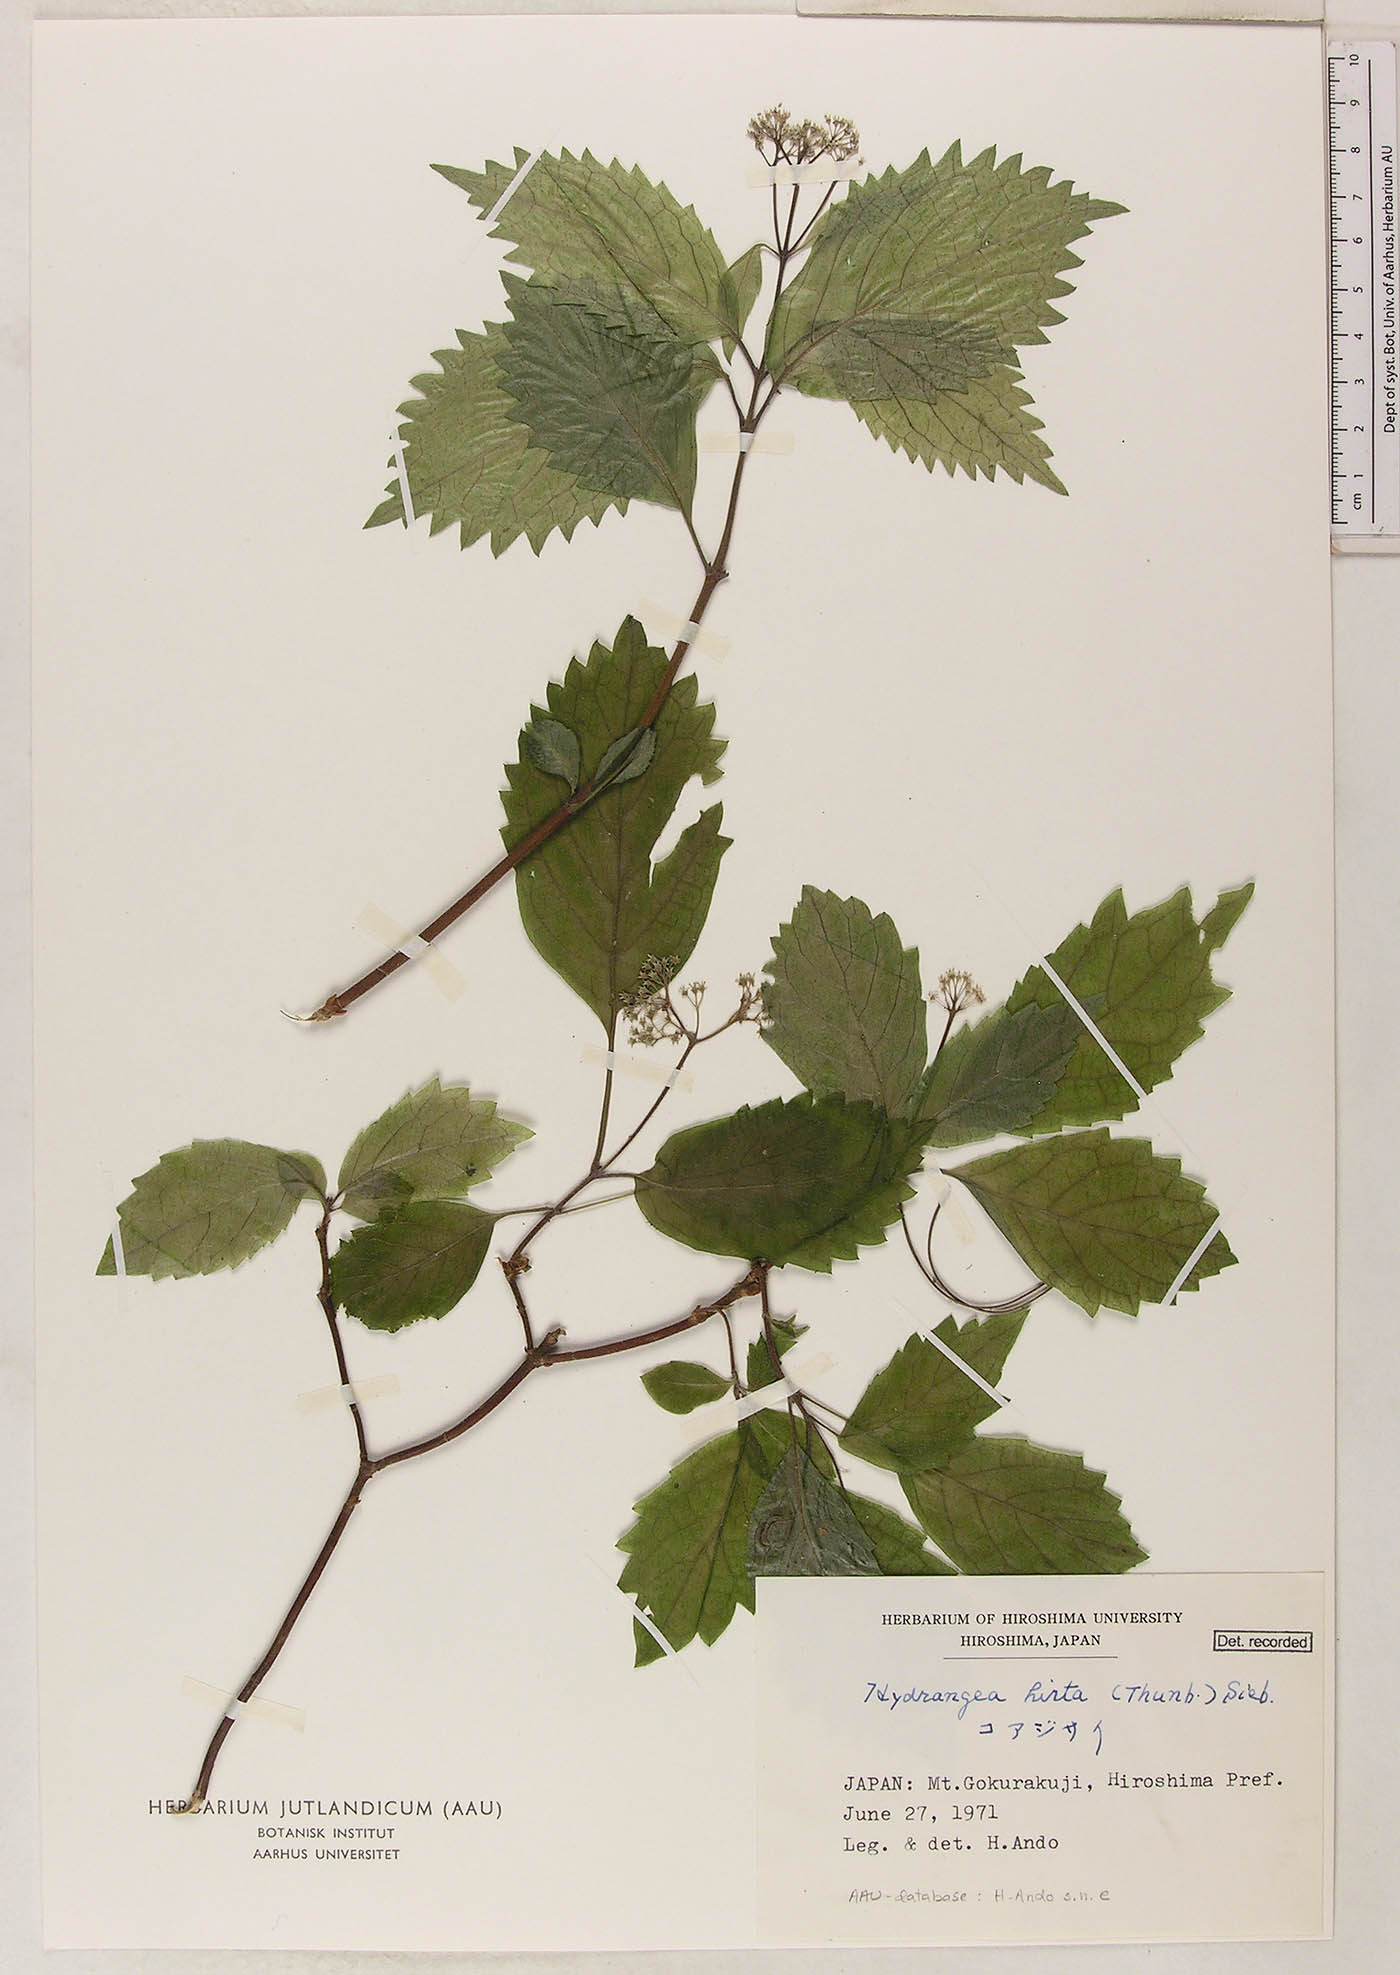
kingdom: Plantae
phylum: Tracheophyta
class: Magnoliopsida
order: Cornales
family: Hydrangeaceae
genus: Hydrangea
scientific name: Hydrangea hirta
